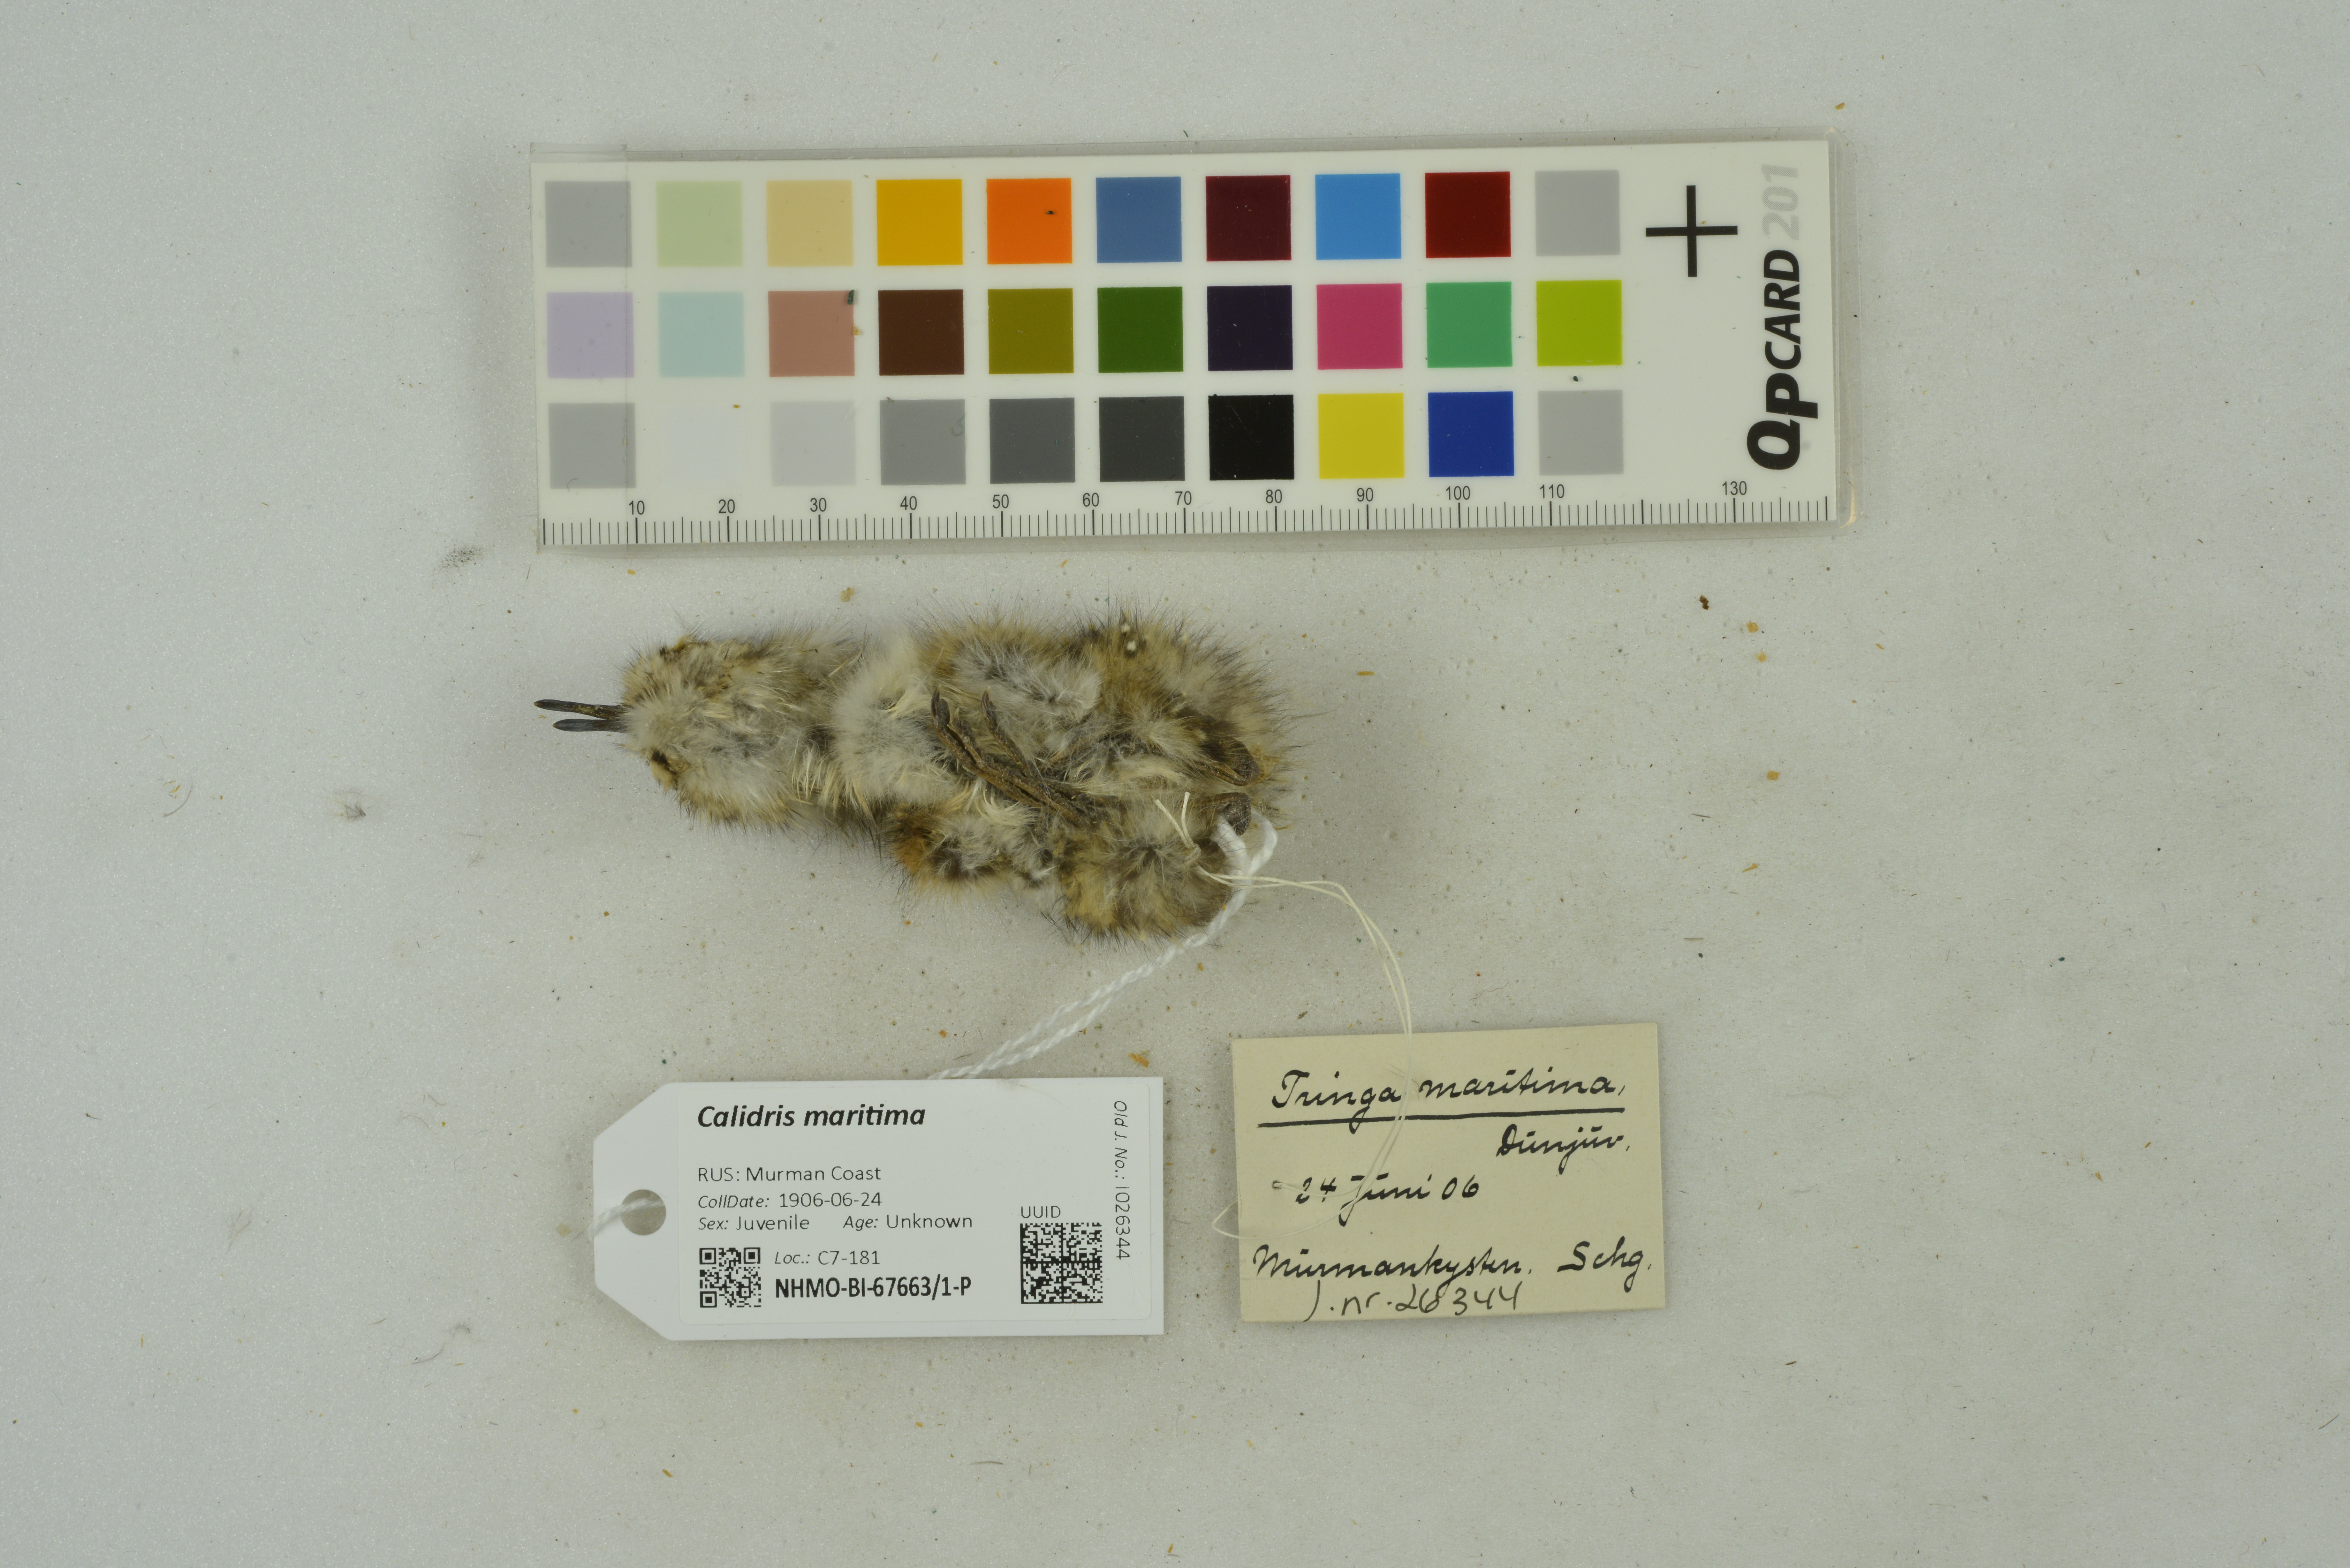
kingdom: Animalia
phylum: Chordata
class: Aves
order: Charadriiformes
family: Scolopacidae
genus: Calidris
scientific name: Calidris maritima
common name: Purple sandpiper
